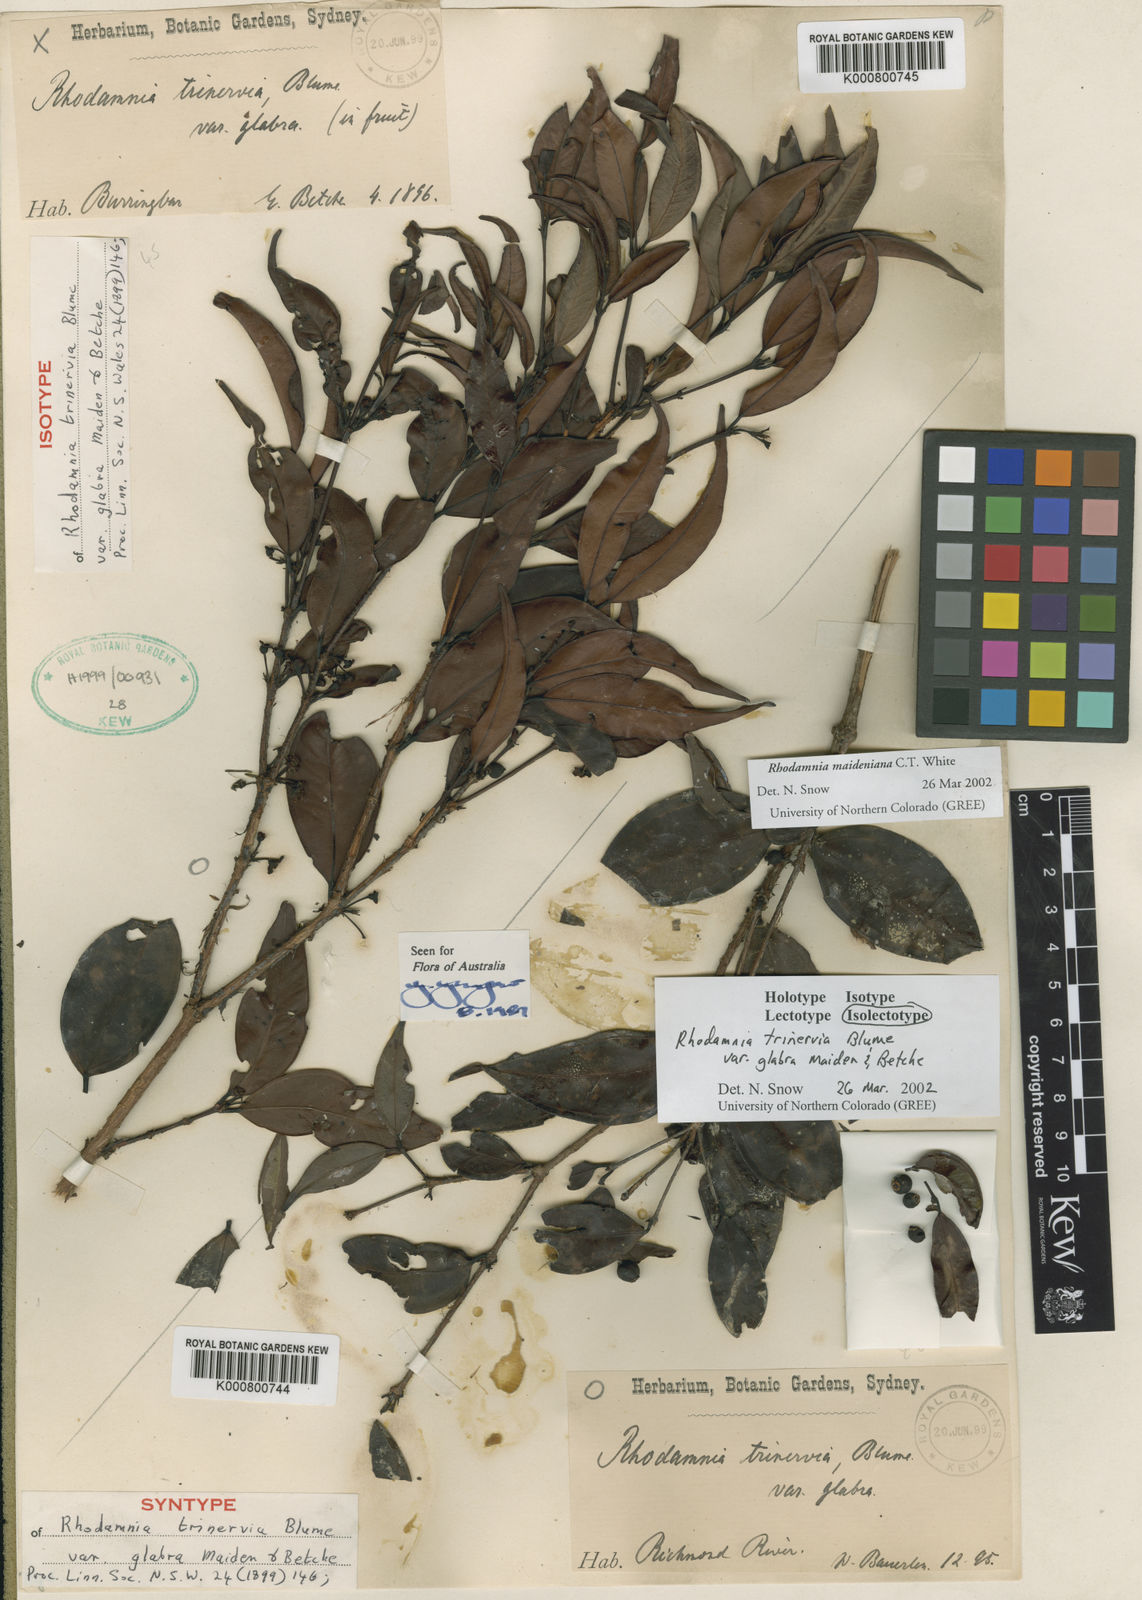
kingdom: Plantae
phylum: Tracheophyta
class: Magnoliopsida
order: Myrtales
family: Myrtaceae
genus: Rhodamnia
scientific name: Rhodamnia maideniana
